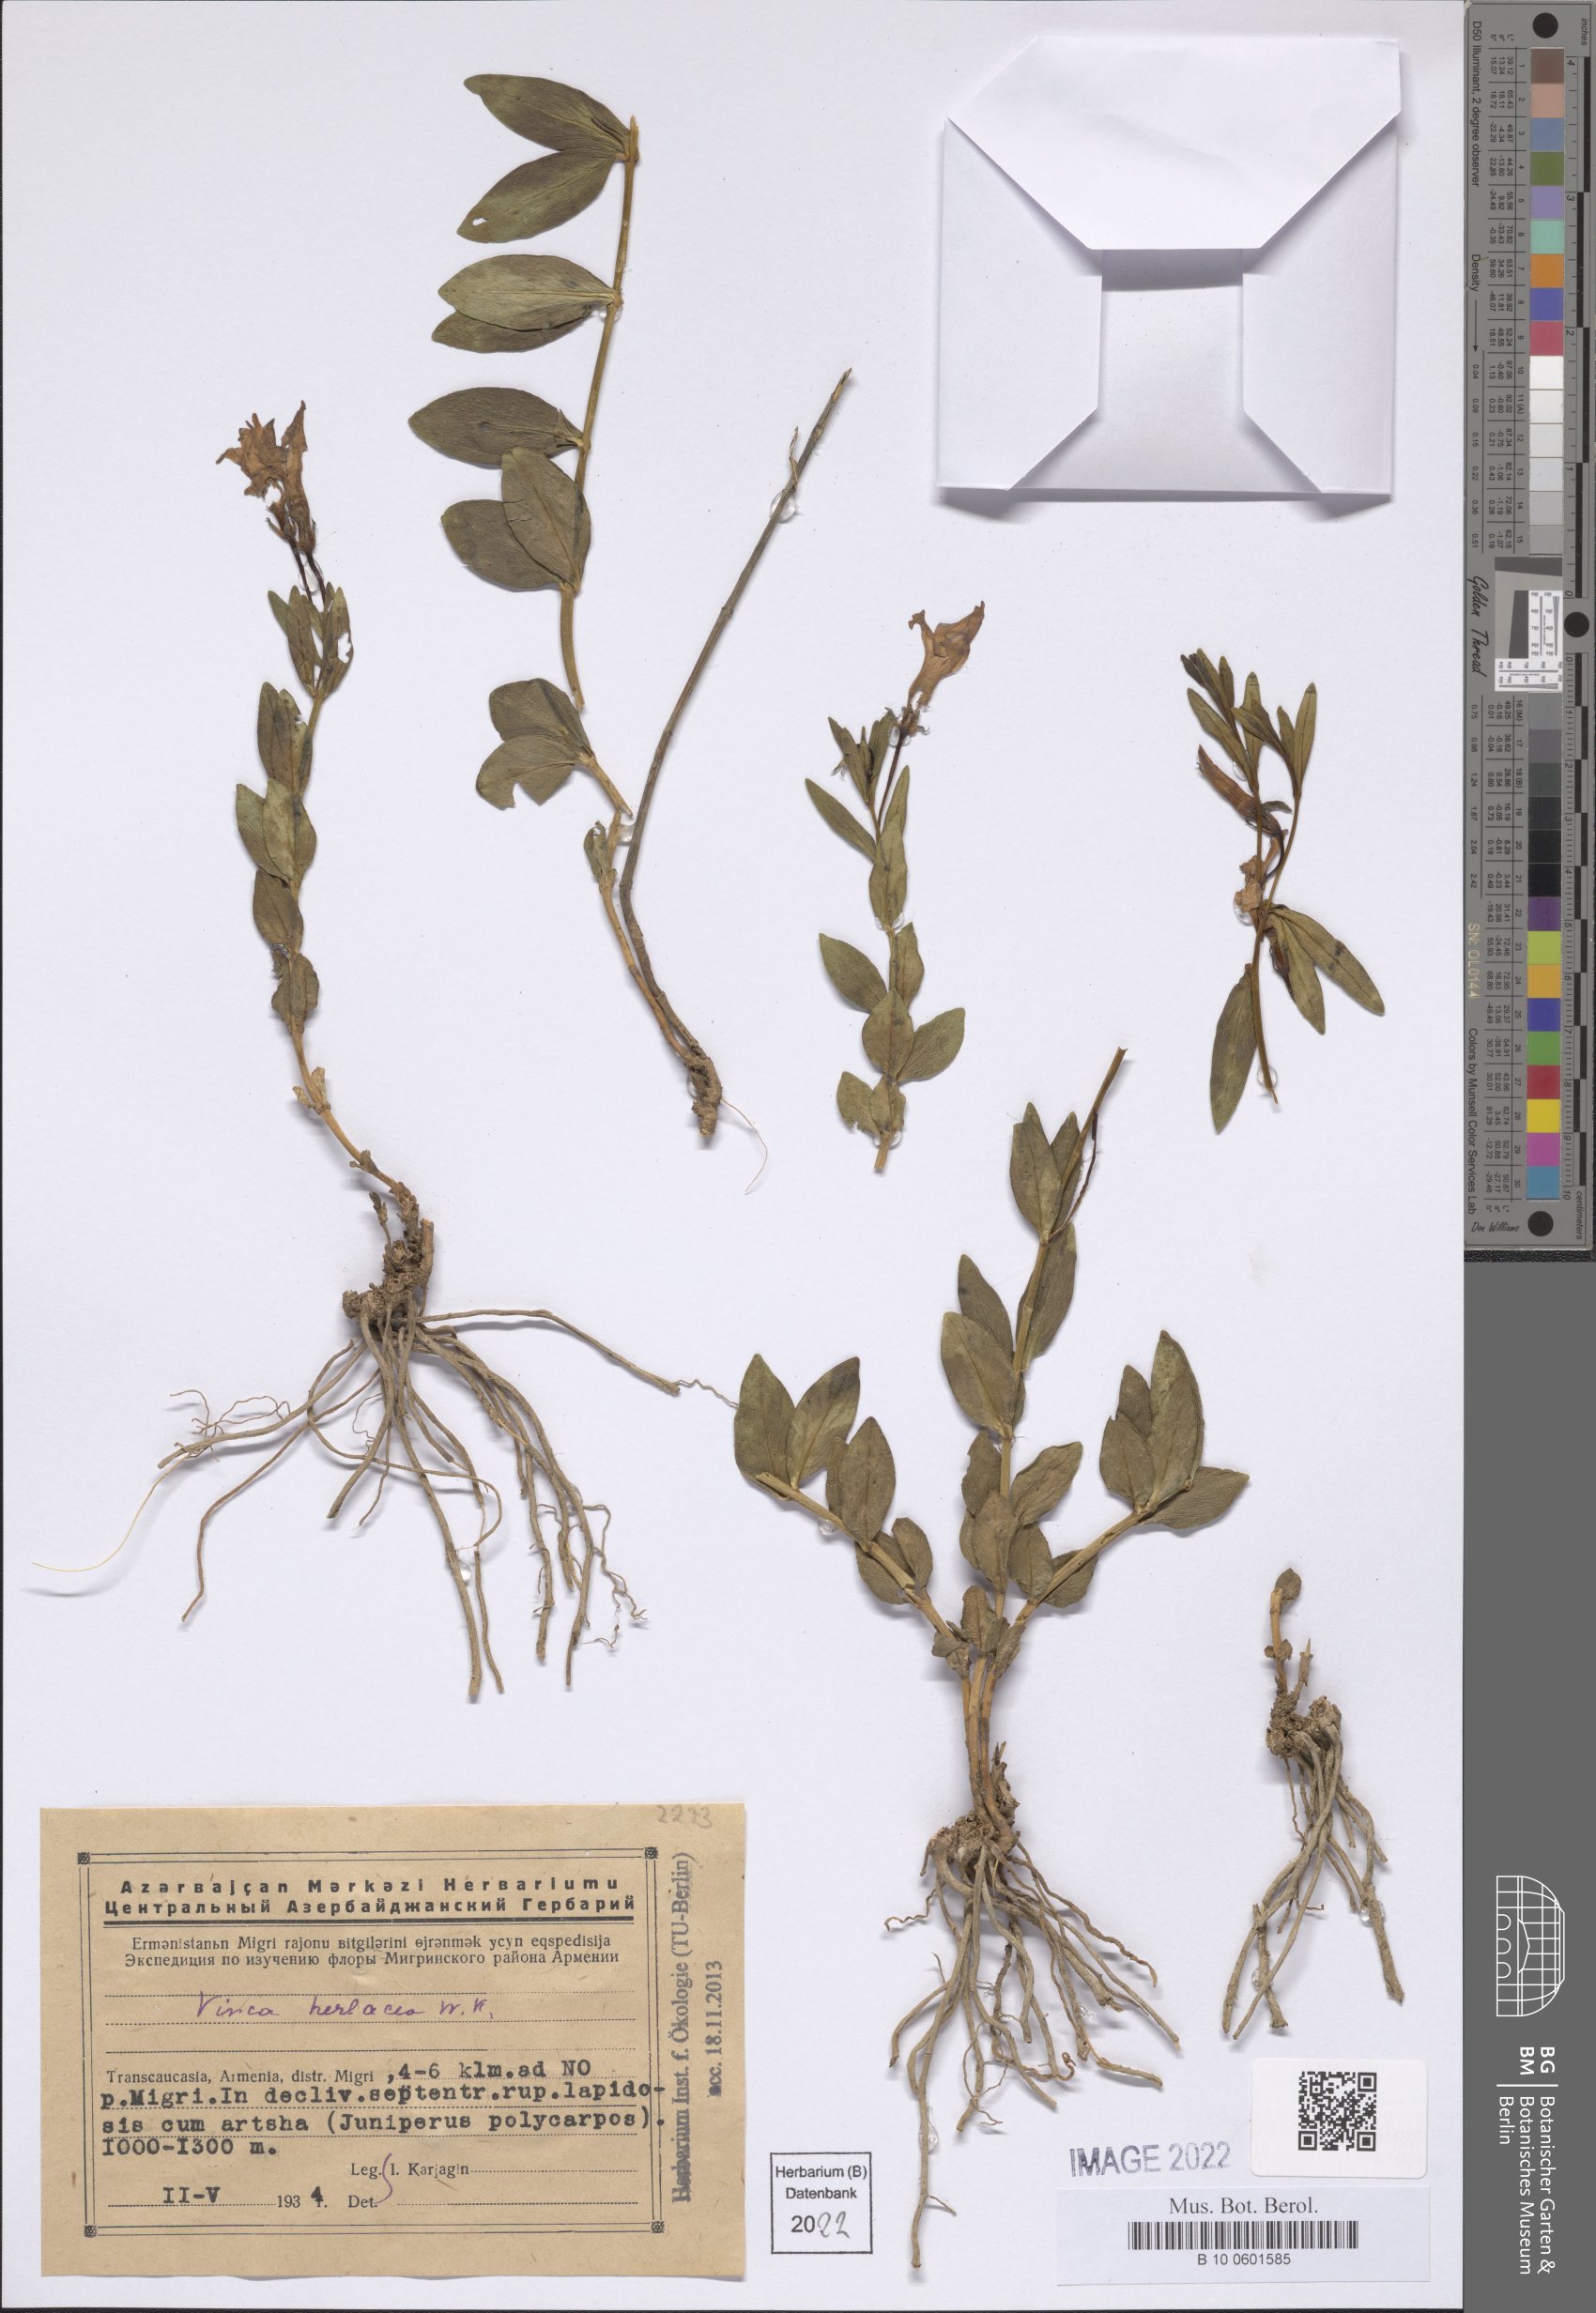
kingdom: Plantae
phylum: Tracheophyta
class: Magnoliopsida
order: Gentianales
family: Apocynaceae
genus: Vinca
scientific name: Vinca herbacea
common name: Herbaceous periwinkle
